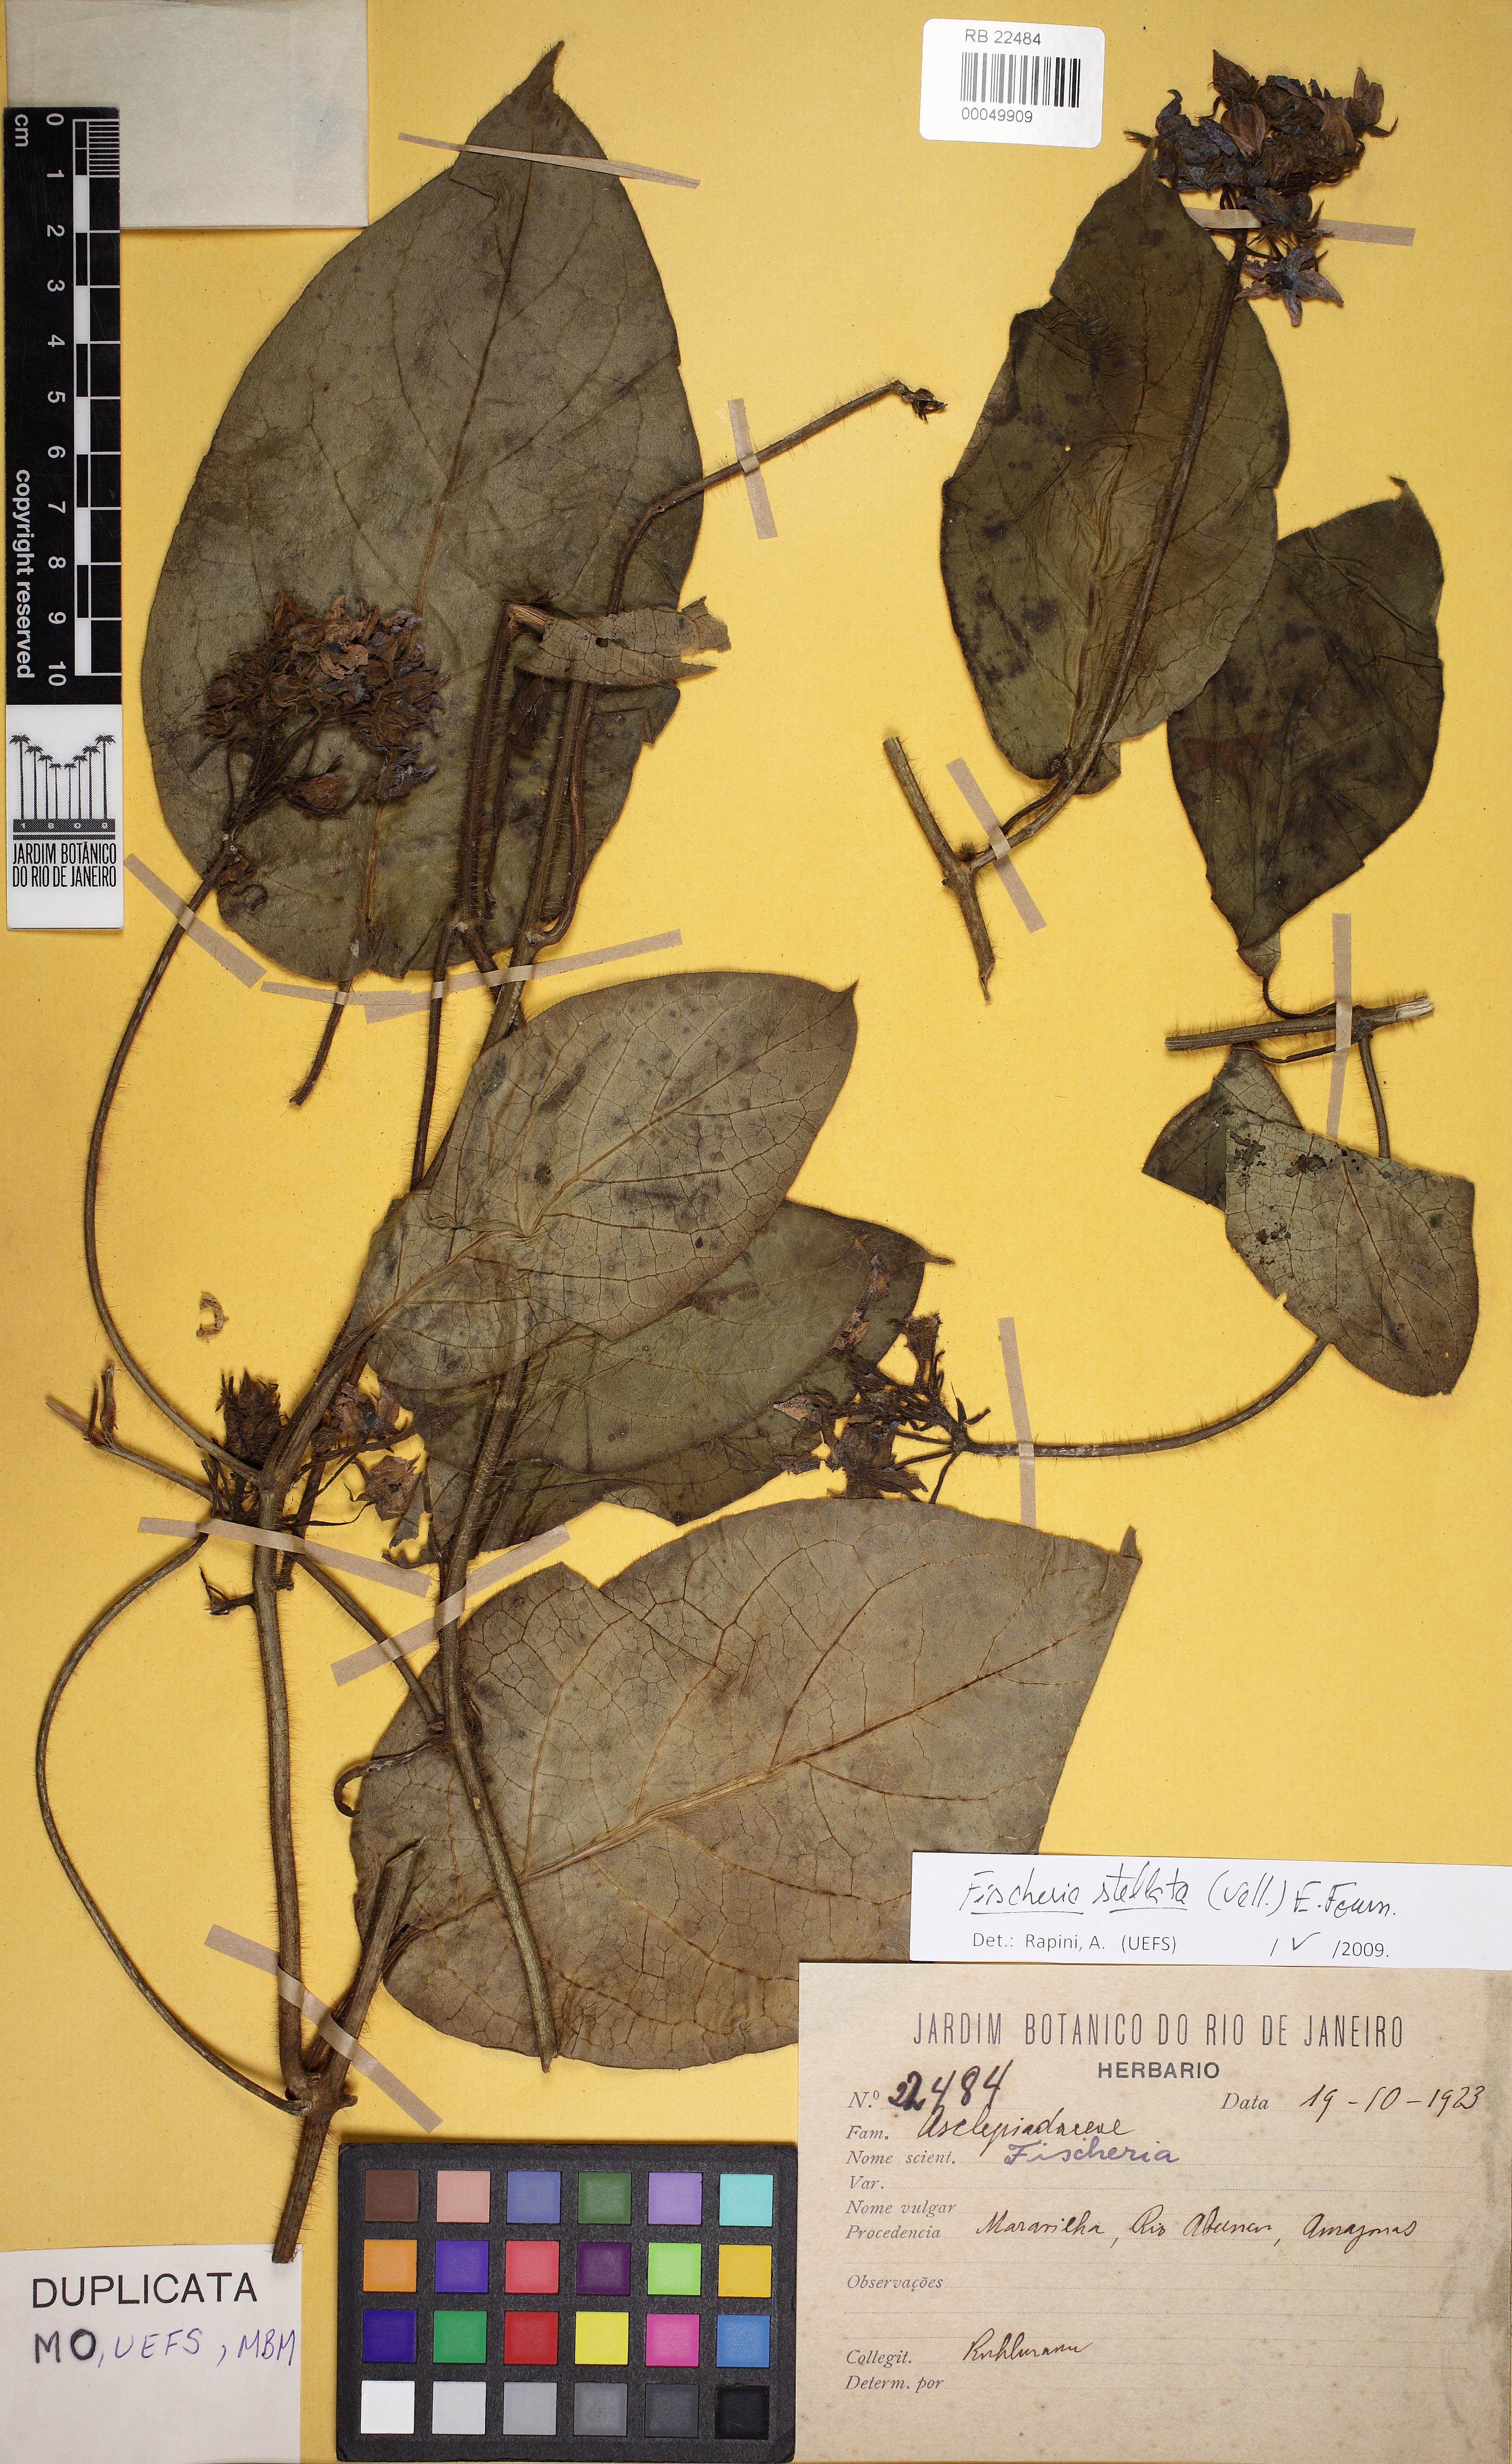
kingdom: Plantae
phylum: Tracheophyta
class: Magnoliopsida
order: Gentianales
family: Apocynaceae
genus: Fischeria
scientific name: Fischeria stellata
